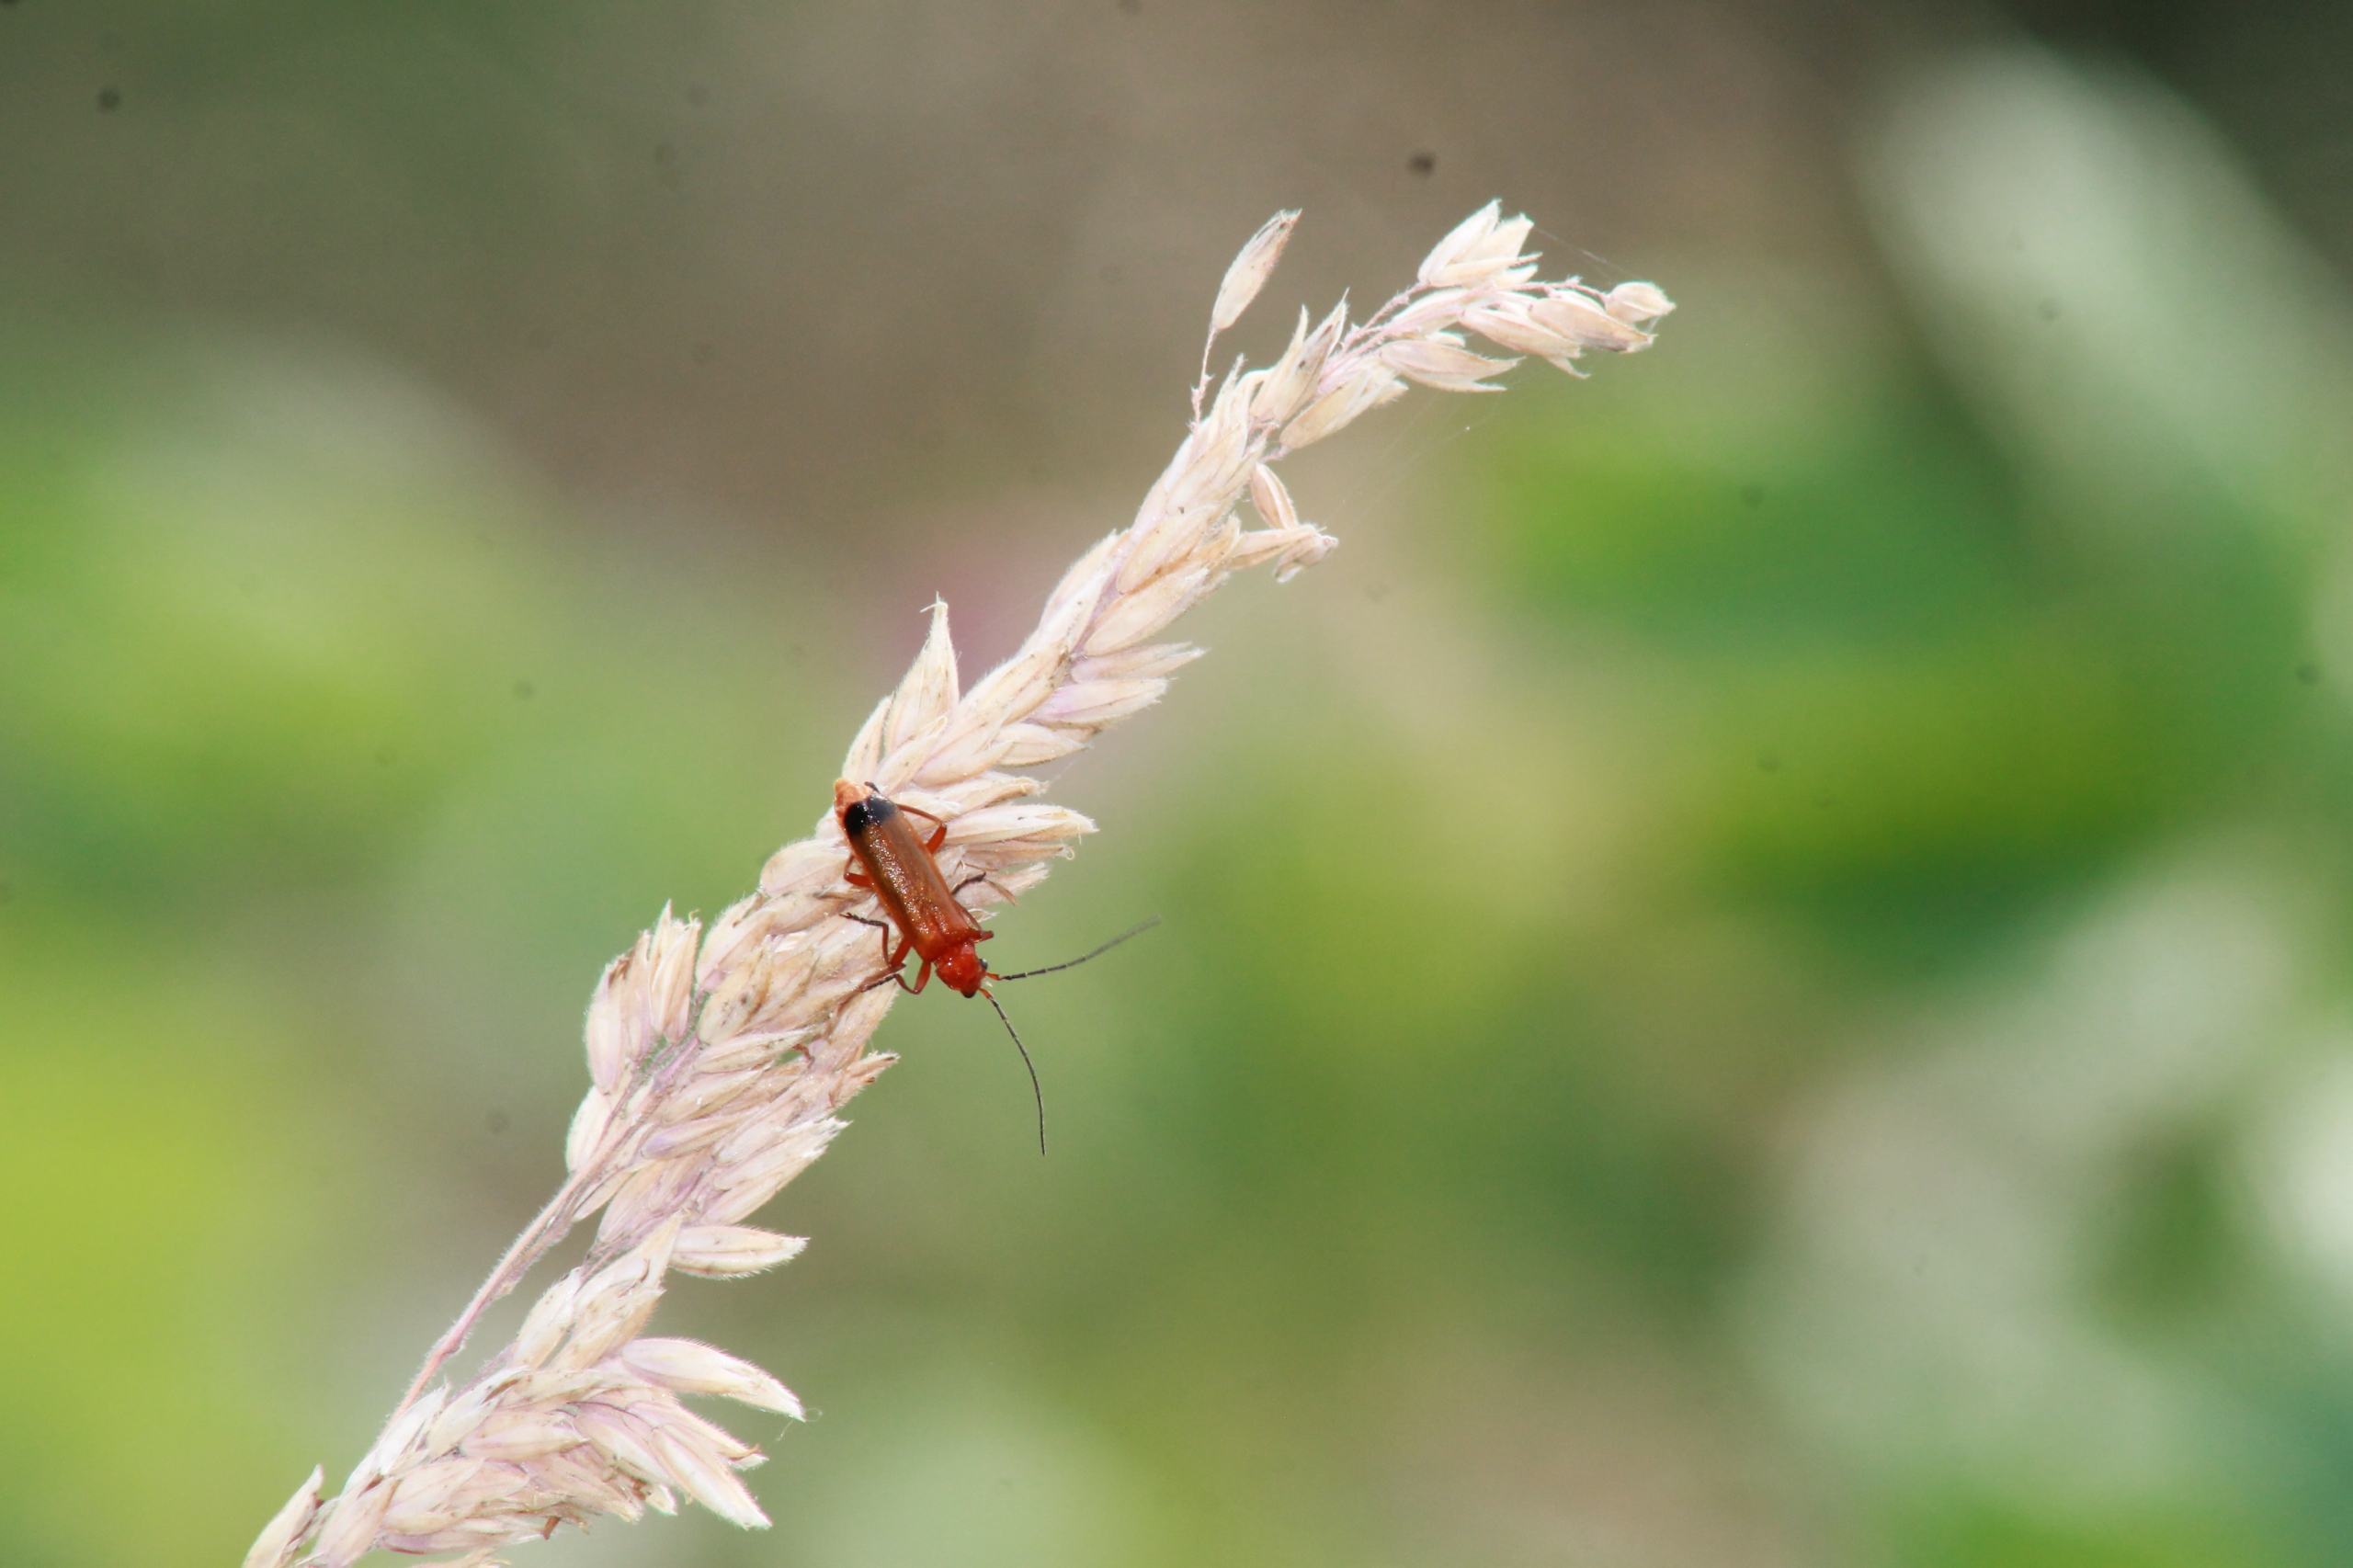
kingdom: Animalia
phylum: Arthropoda
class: Insecta
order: Coleoptera
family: Cantharidae
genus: Rhagonycha
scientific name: Rhagonycha fulva
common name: Præstebille
